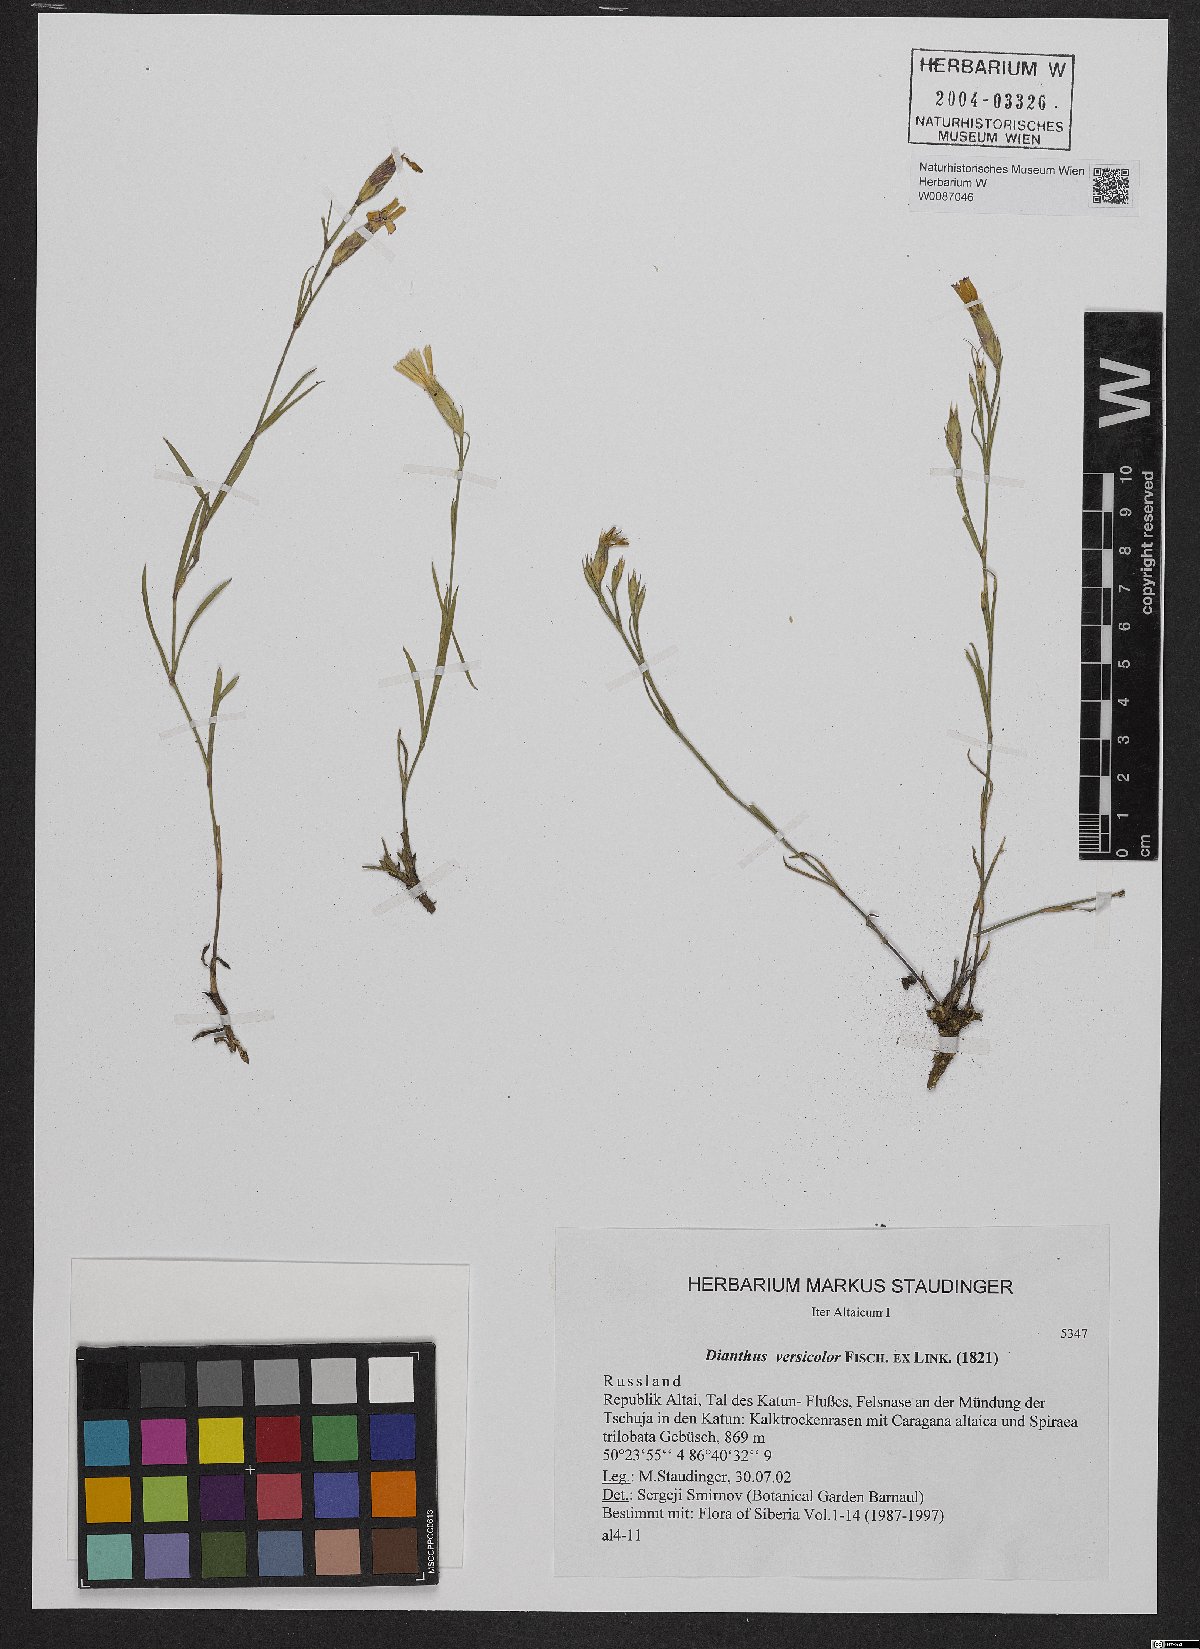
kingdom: Plantae
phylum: Tracheophyta
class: Magnoliopsida
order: Caryophyllales
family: Caryophyllaceae
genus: Dianthus
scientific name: Dianthus chinensis
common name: Rainbow pink
